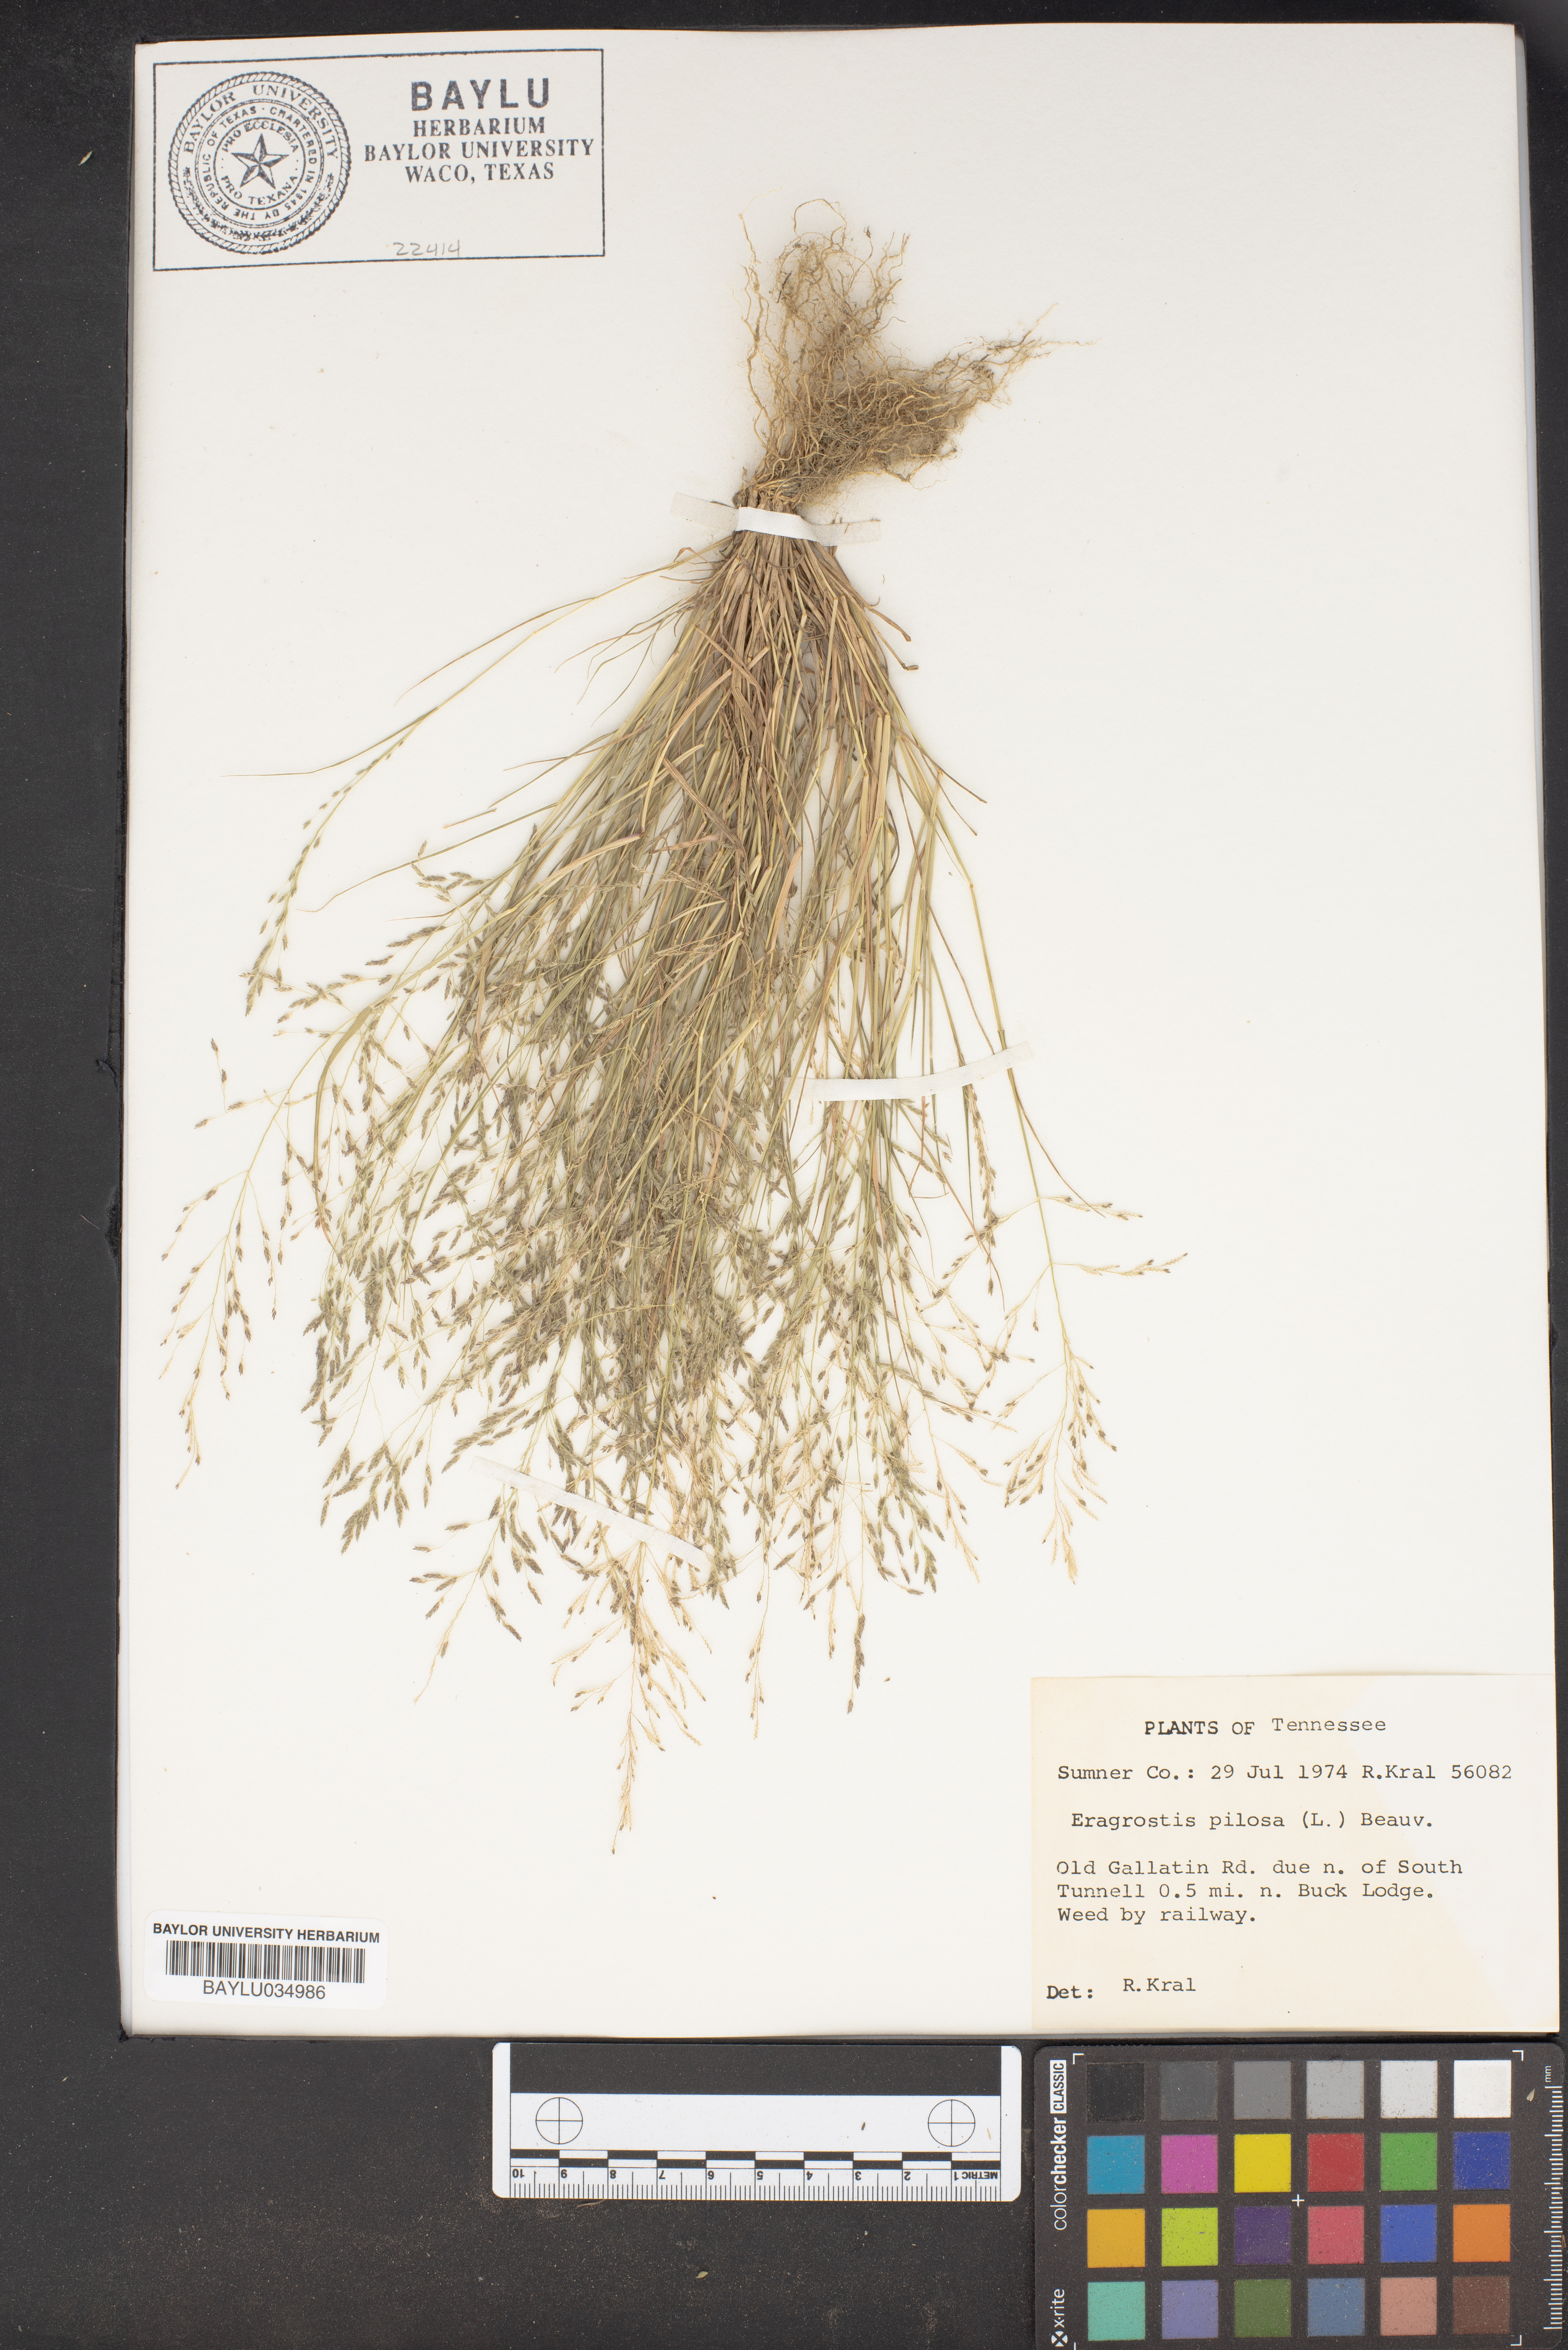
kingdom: Plantae
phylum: Tracheophyta
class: Liliopsida
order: Poales
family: Poaceae
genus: Eragrostis
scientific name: Eragrostis pilosa
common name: Indian lovegrass
